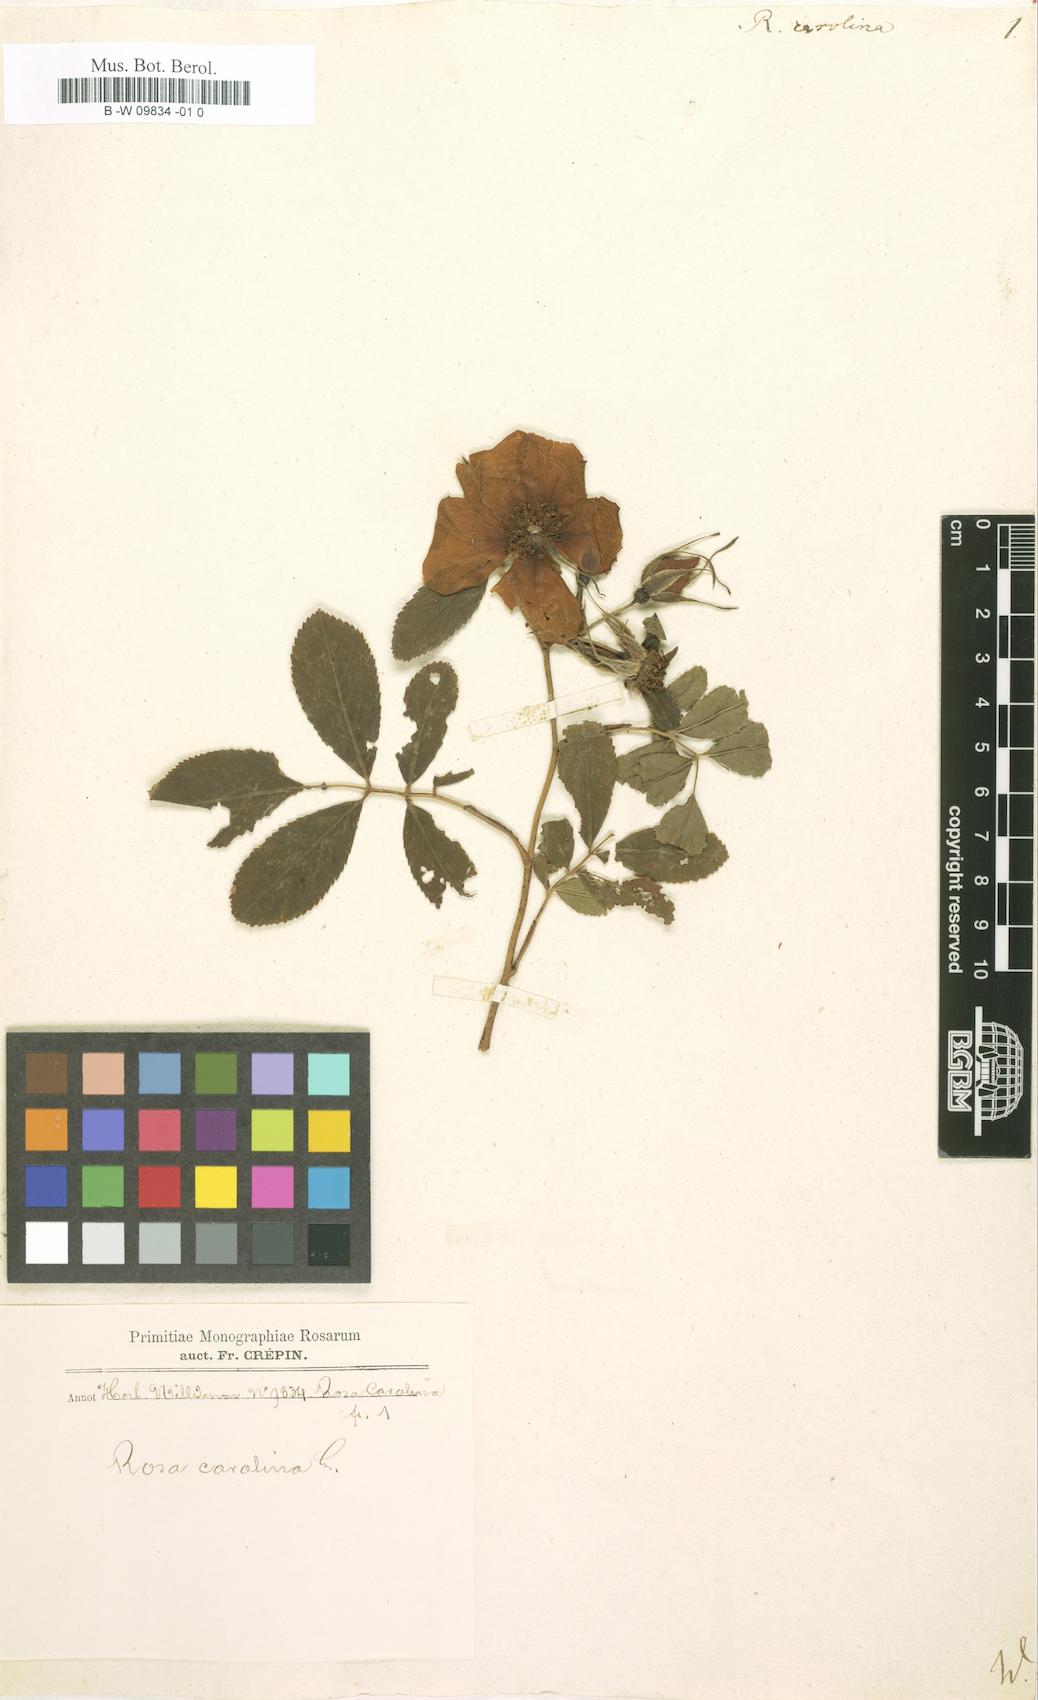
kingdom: Plantae
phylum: Tracheophyta
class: Magnoliopsida
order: Rosales
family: Rosaceae
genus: Rosa
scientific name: Rosa carolina
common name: Pasture rose
